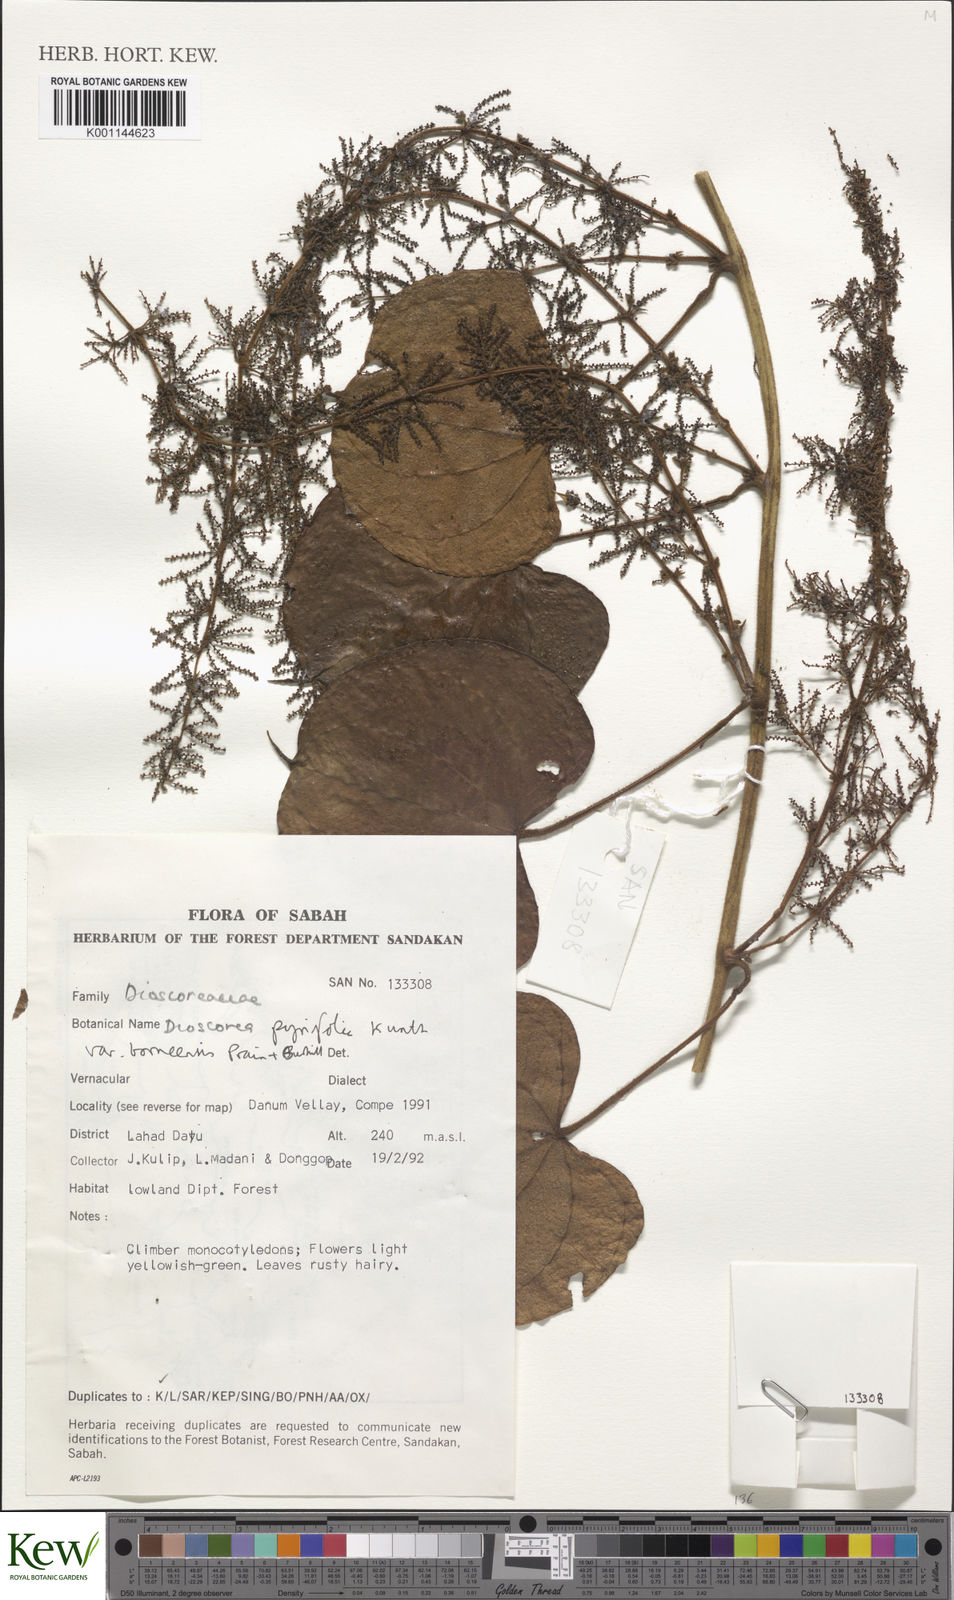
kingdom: Plantae
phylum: Tracheophyta
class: Liliopsida
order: Dioscoreales
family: Dioscoreaceae
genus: Dioscorea
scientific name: Dioscorea pyrifolia
